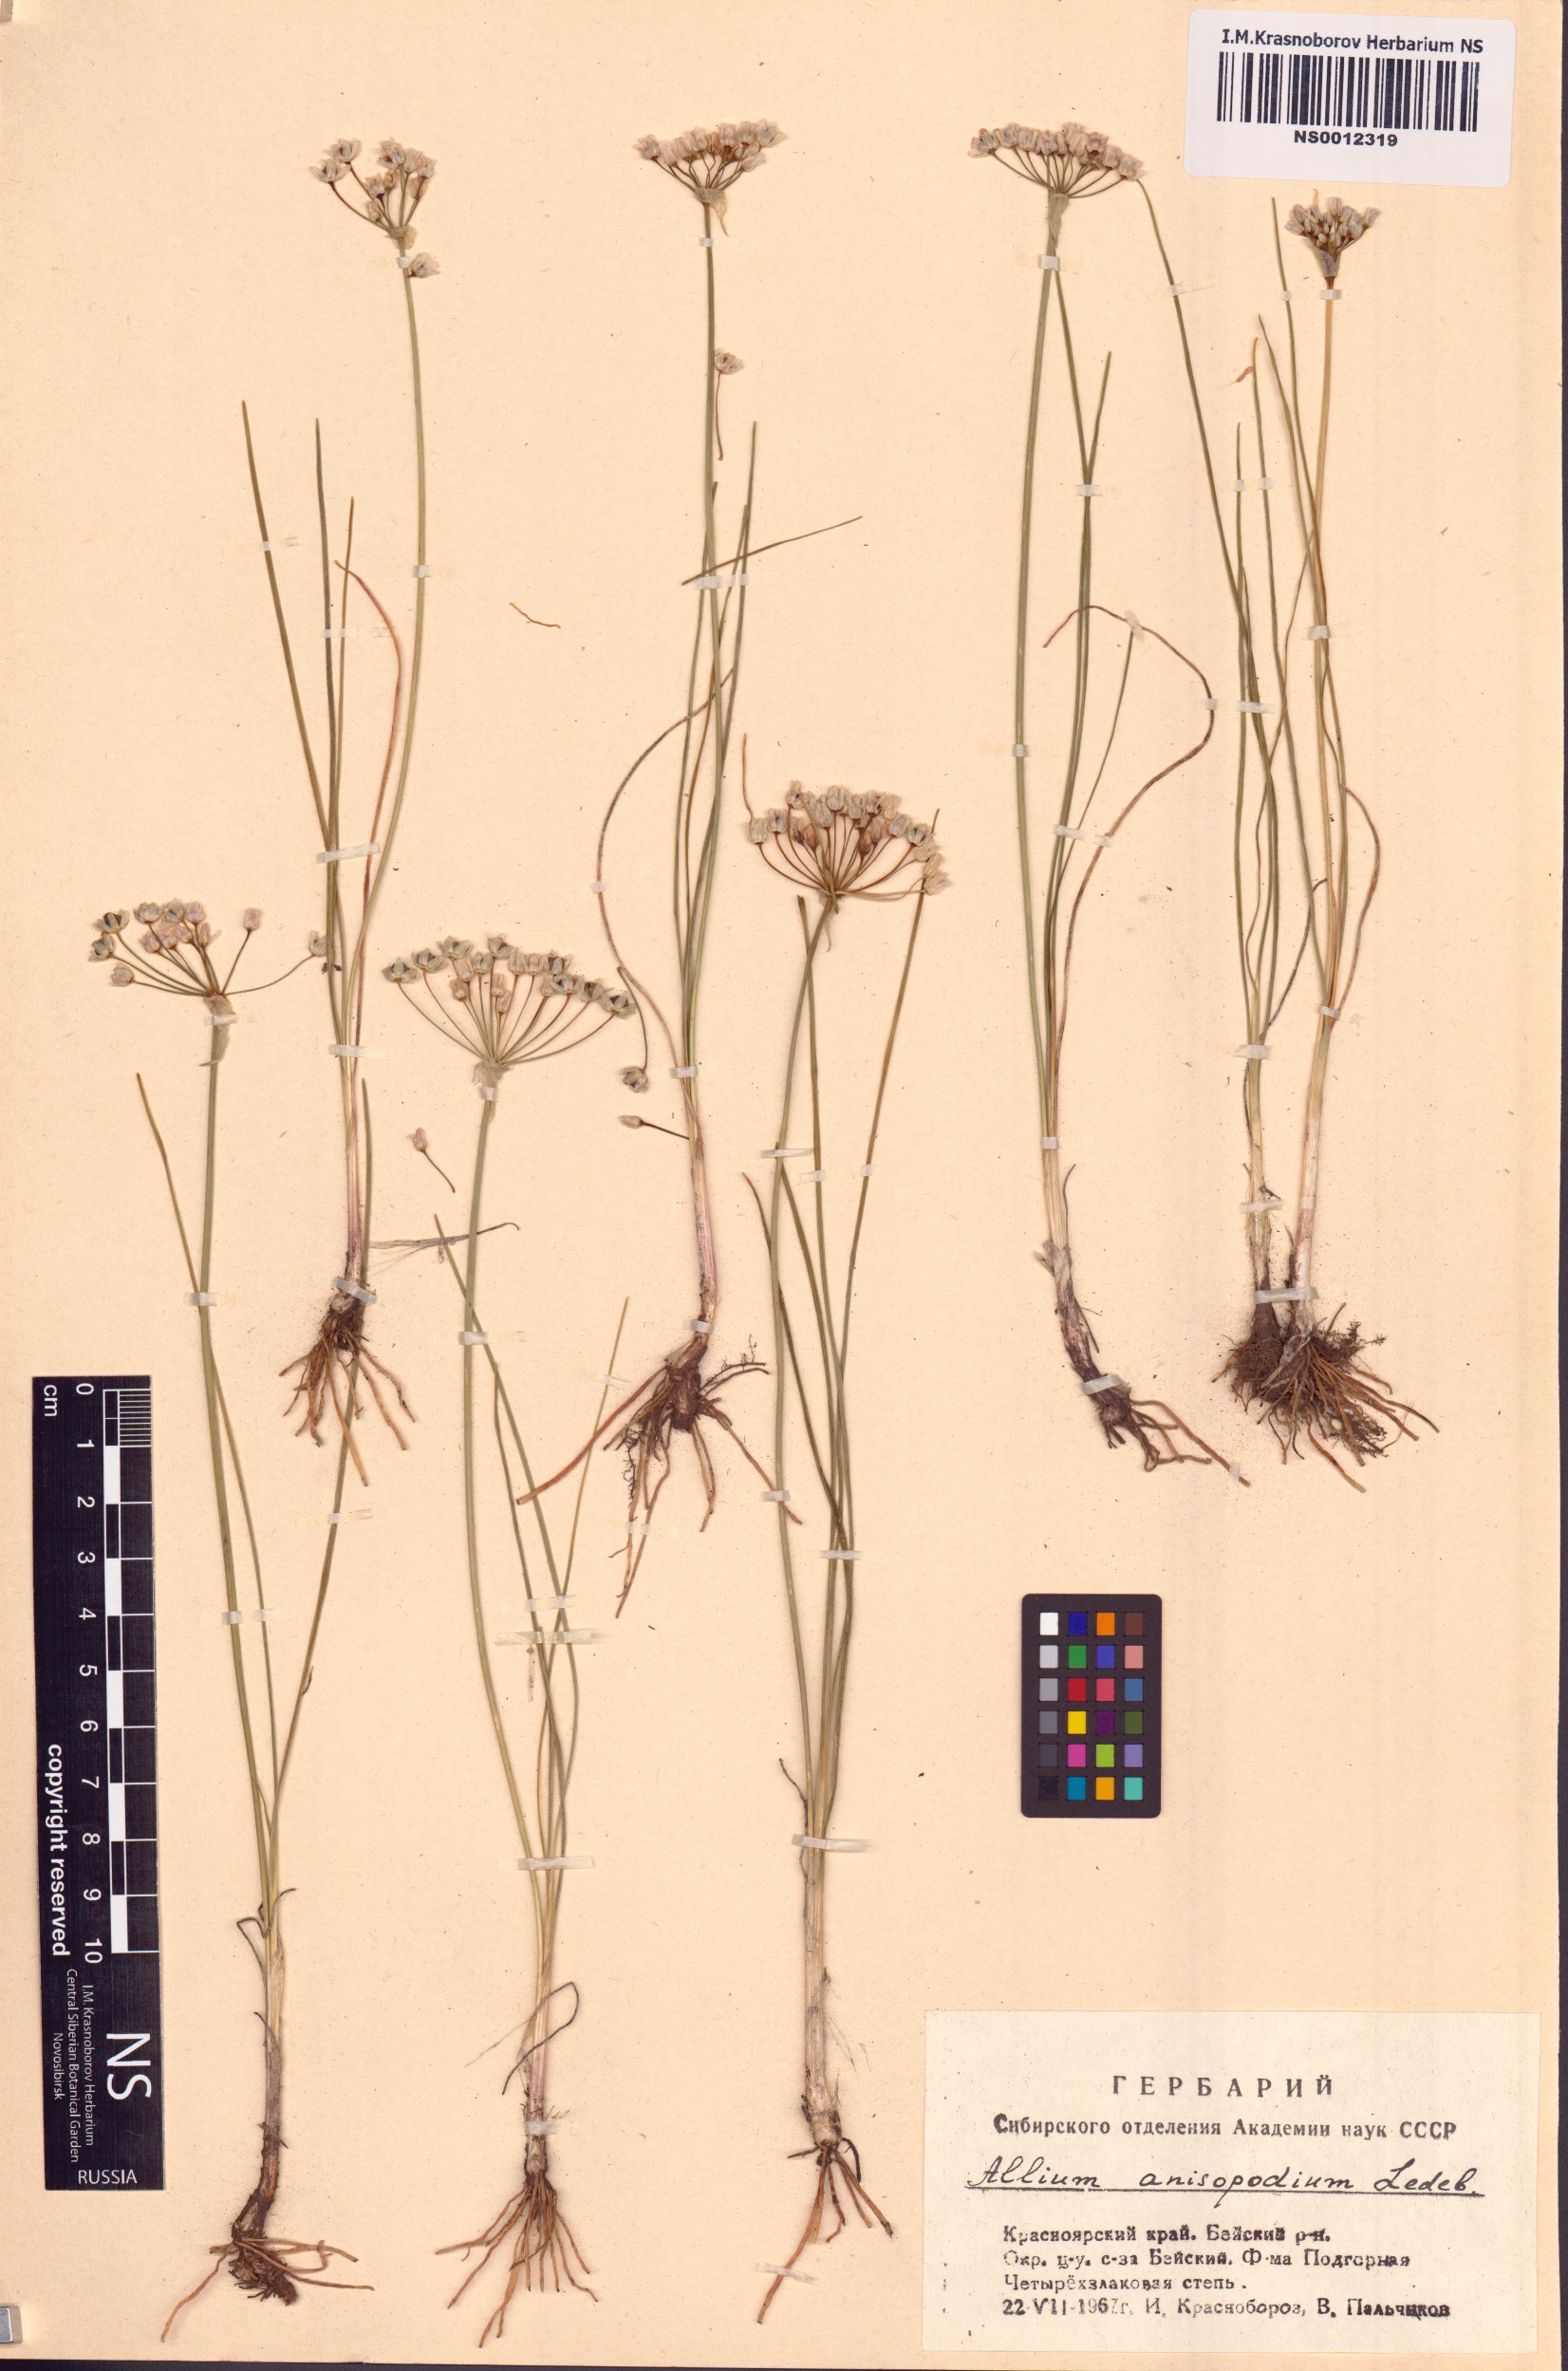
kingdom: Plantae
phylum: Tracheophyta
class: Liliopsida
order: Asparagales
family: Amaryllidaceae
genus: Allium
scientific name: Allium anisopodium
